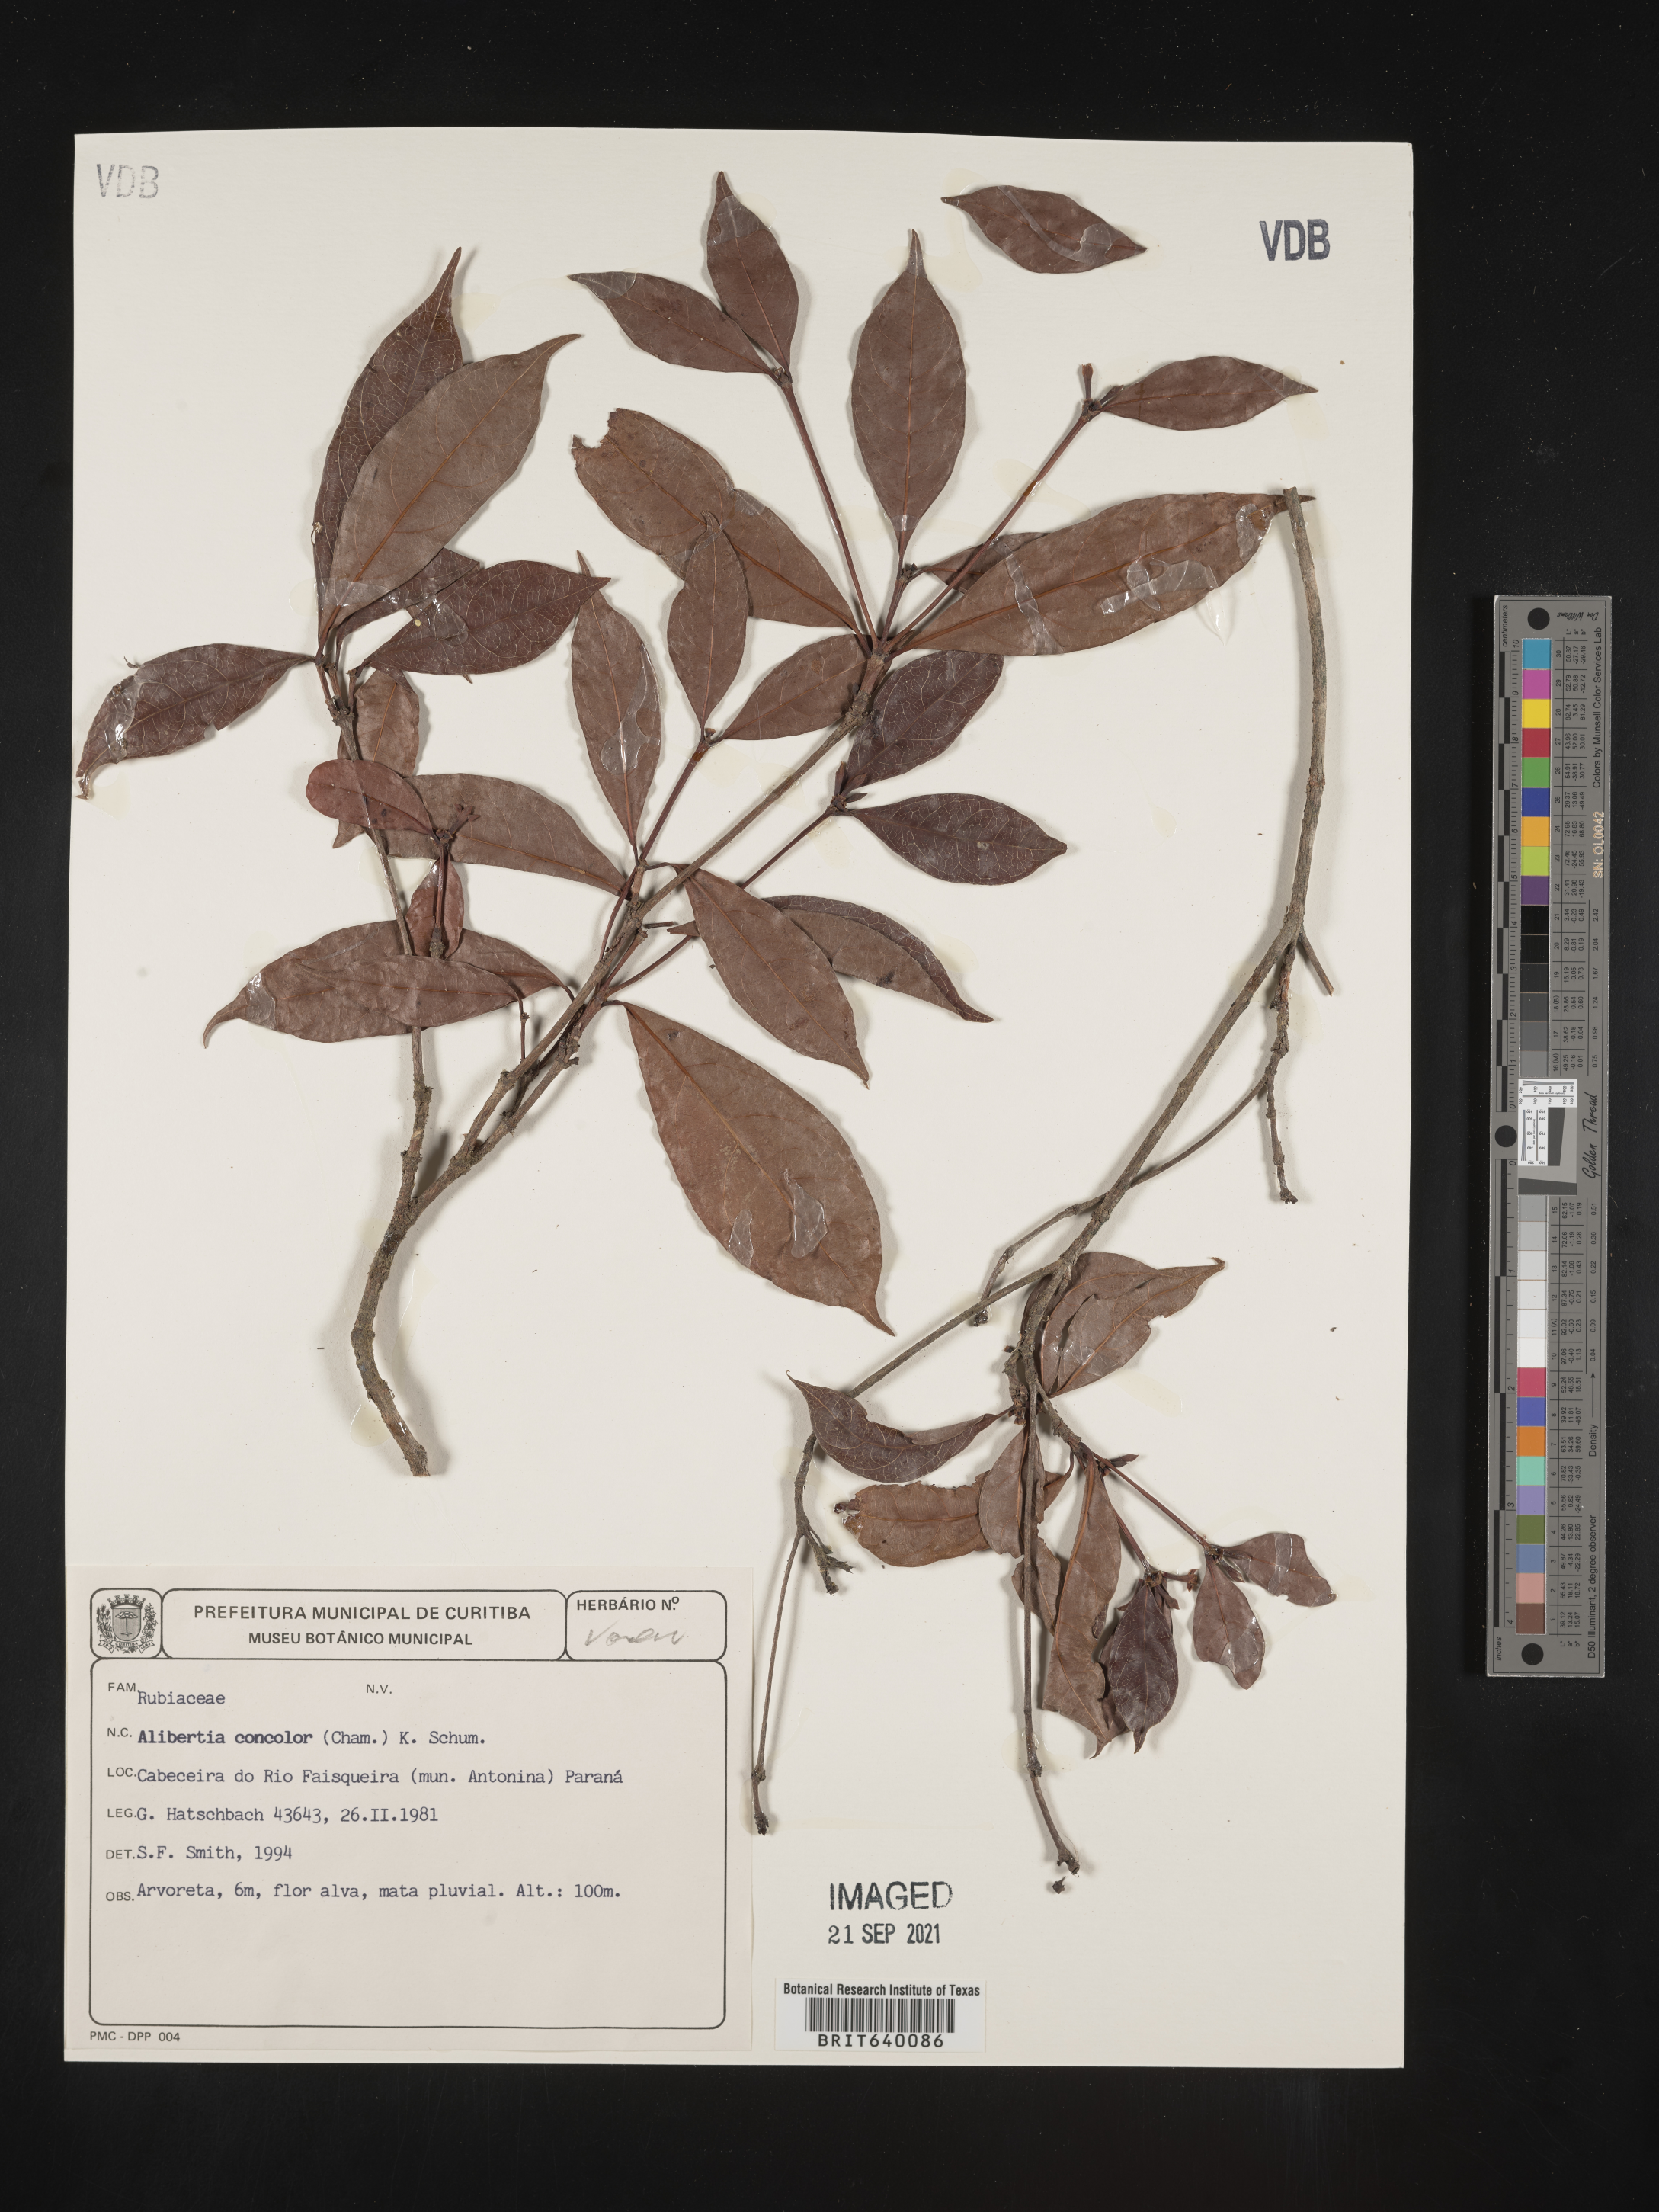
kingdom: Plantae
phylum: Tracheophyta
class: Magnoliopsida
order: Gentianales
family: Rubiaceae
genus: Alibertia
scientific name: Alibertia
